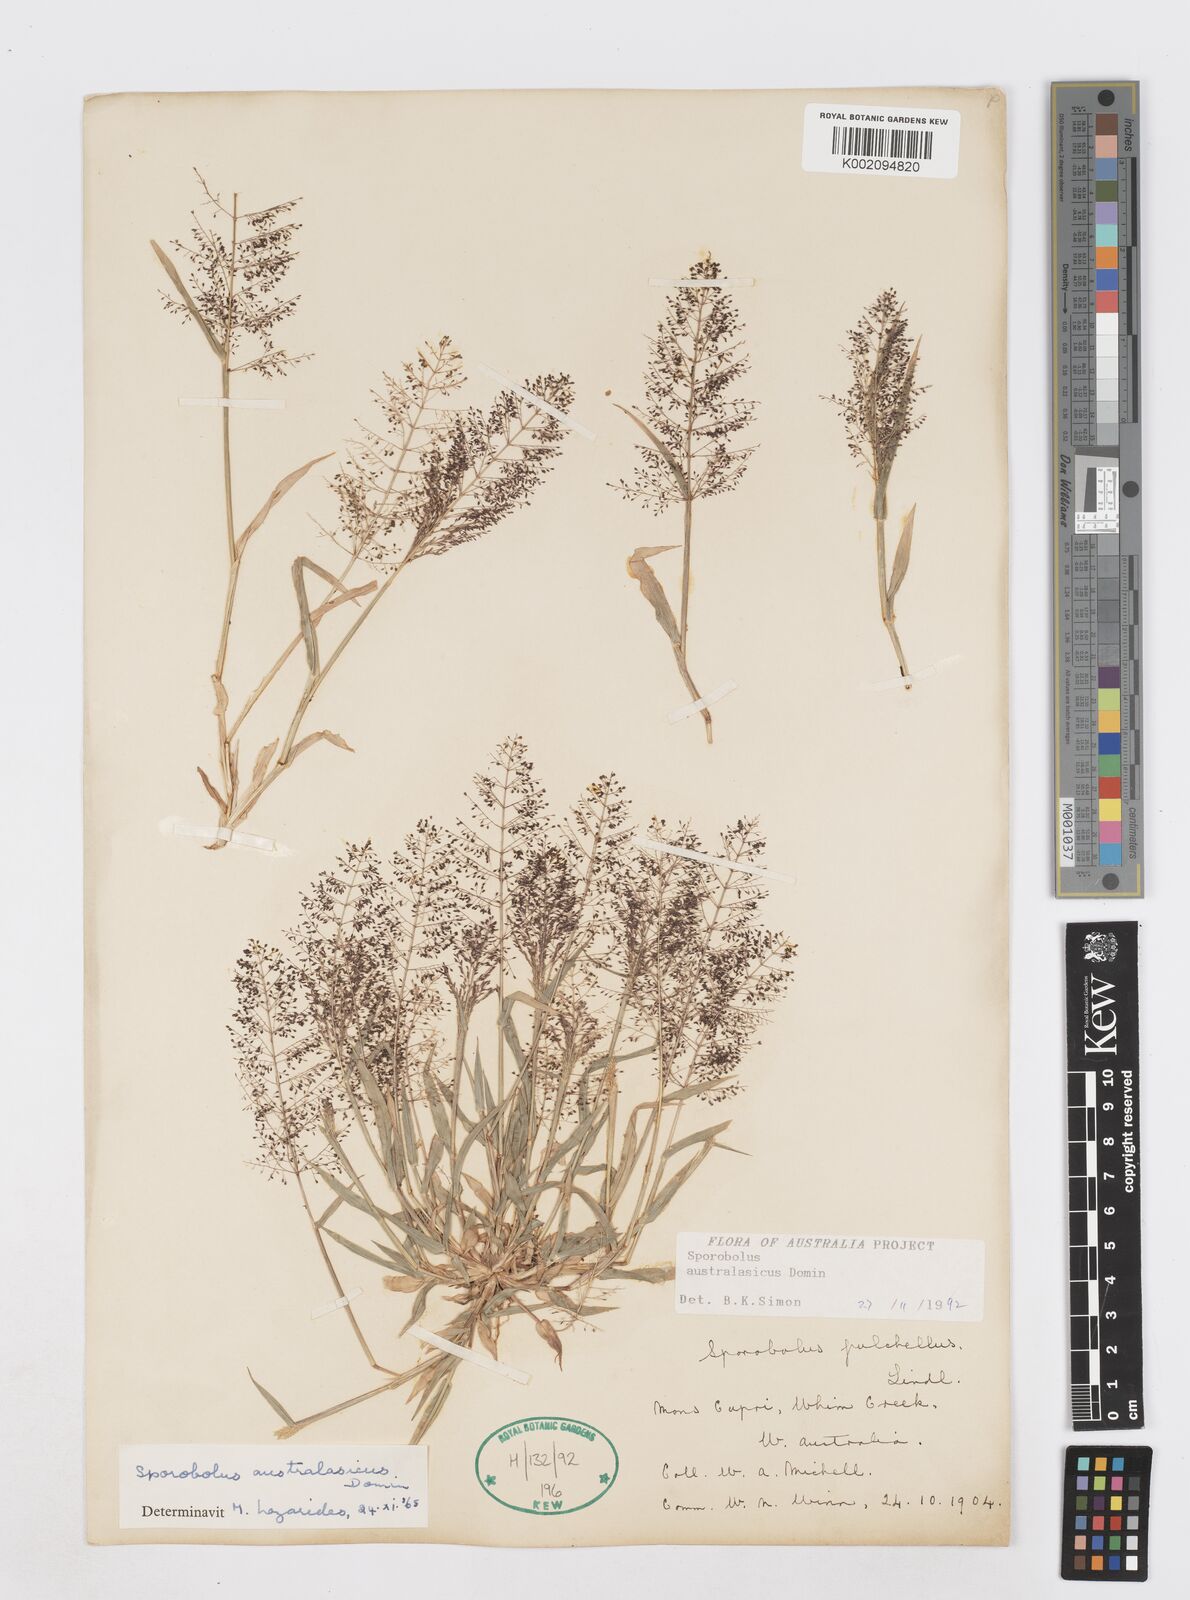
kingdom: Plantae
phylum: Tracheophyta
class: Liliopsida
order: Poales
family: Poaceae
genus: Sporobolus
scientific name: Sporobolus australasicus
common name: Australian dropseed
